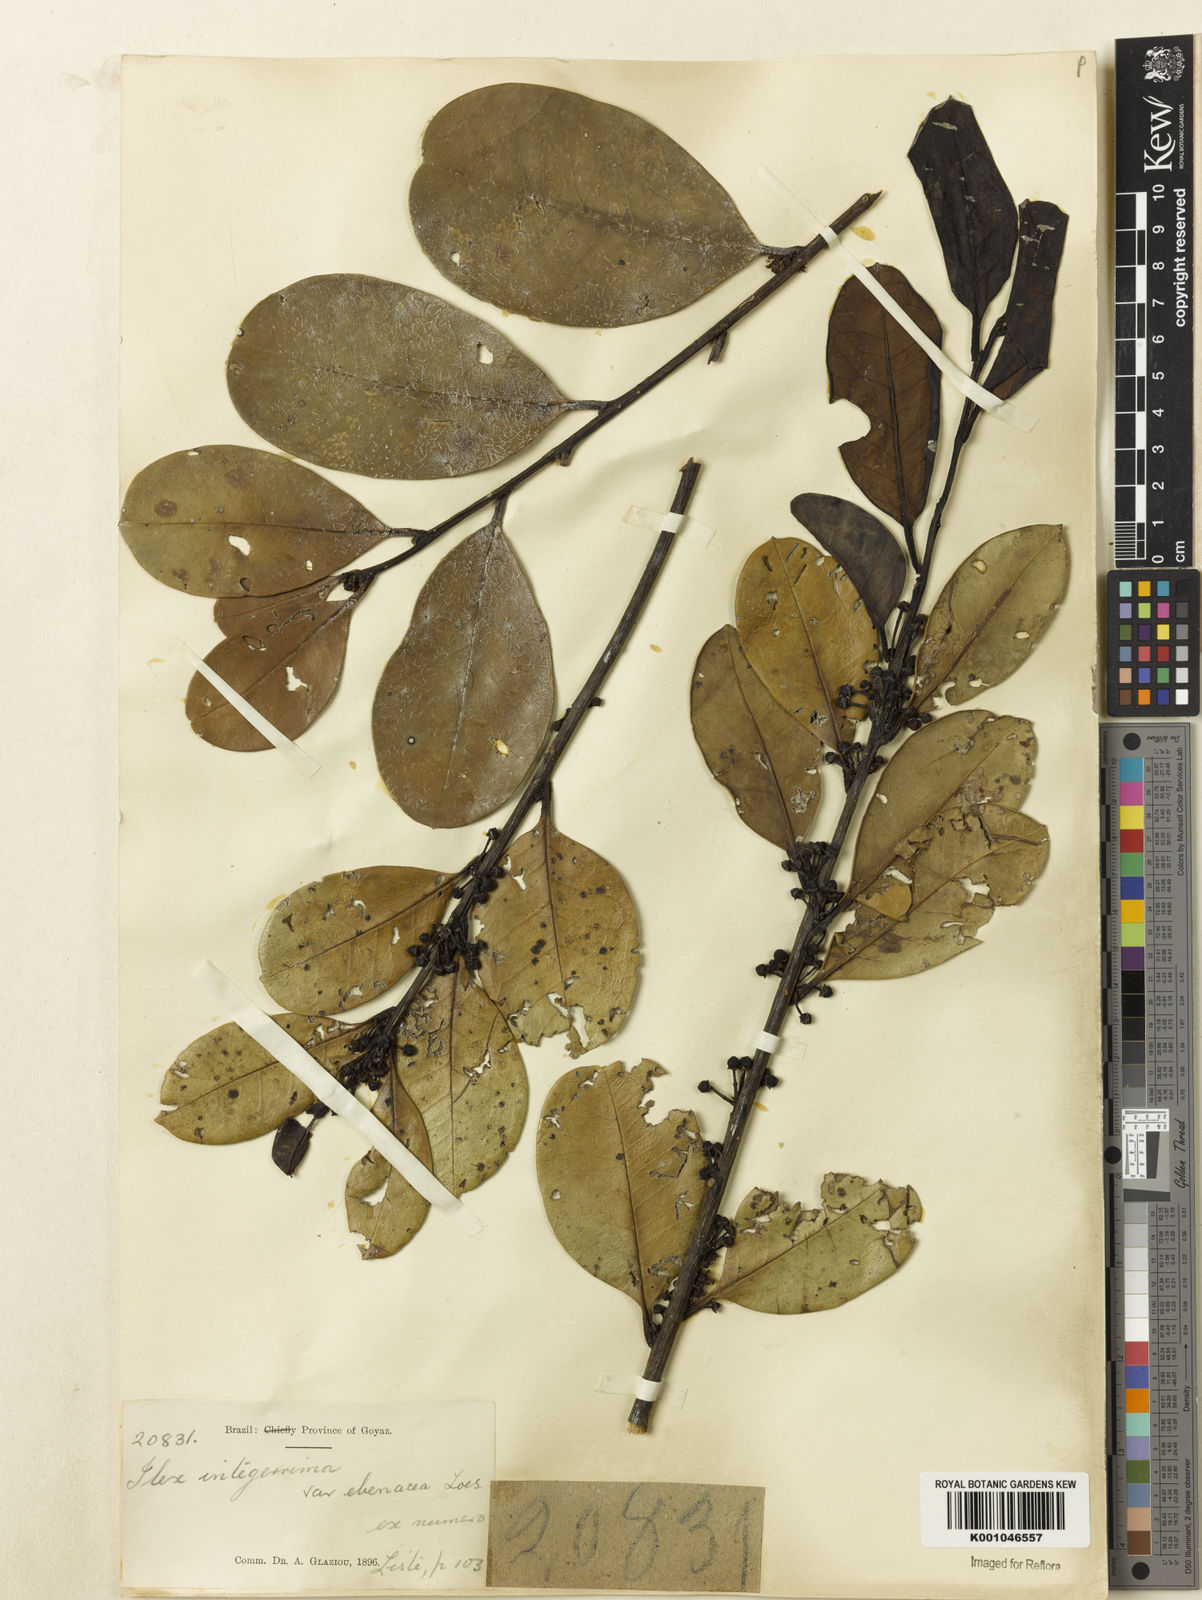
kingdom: Plantae
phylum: Tracheophyta
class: Magnoliopsida
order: Aquifoliales
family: Aquifoliaceae
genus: Ilex
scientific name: Ilex integerrima
